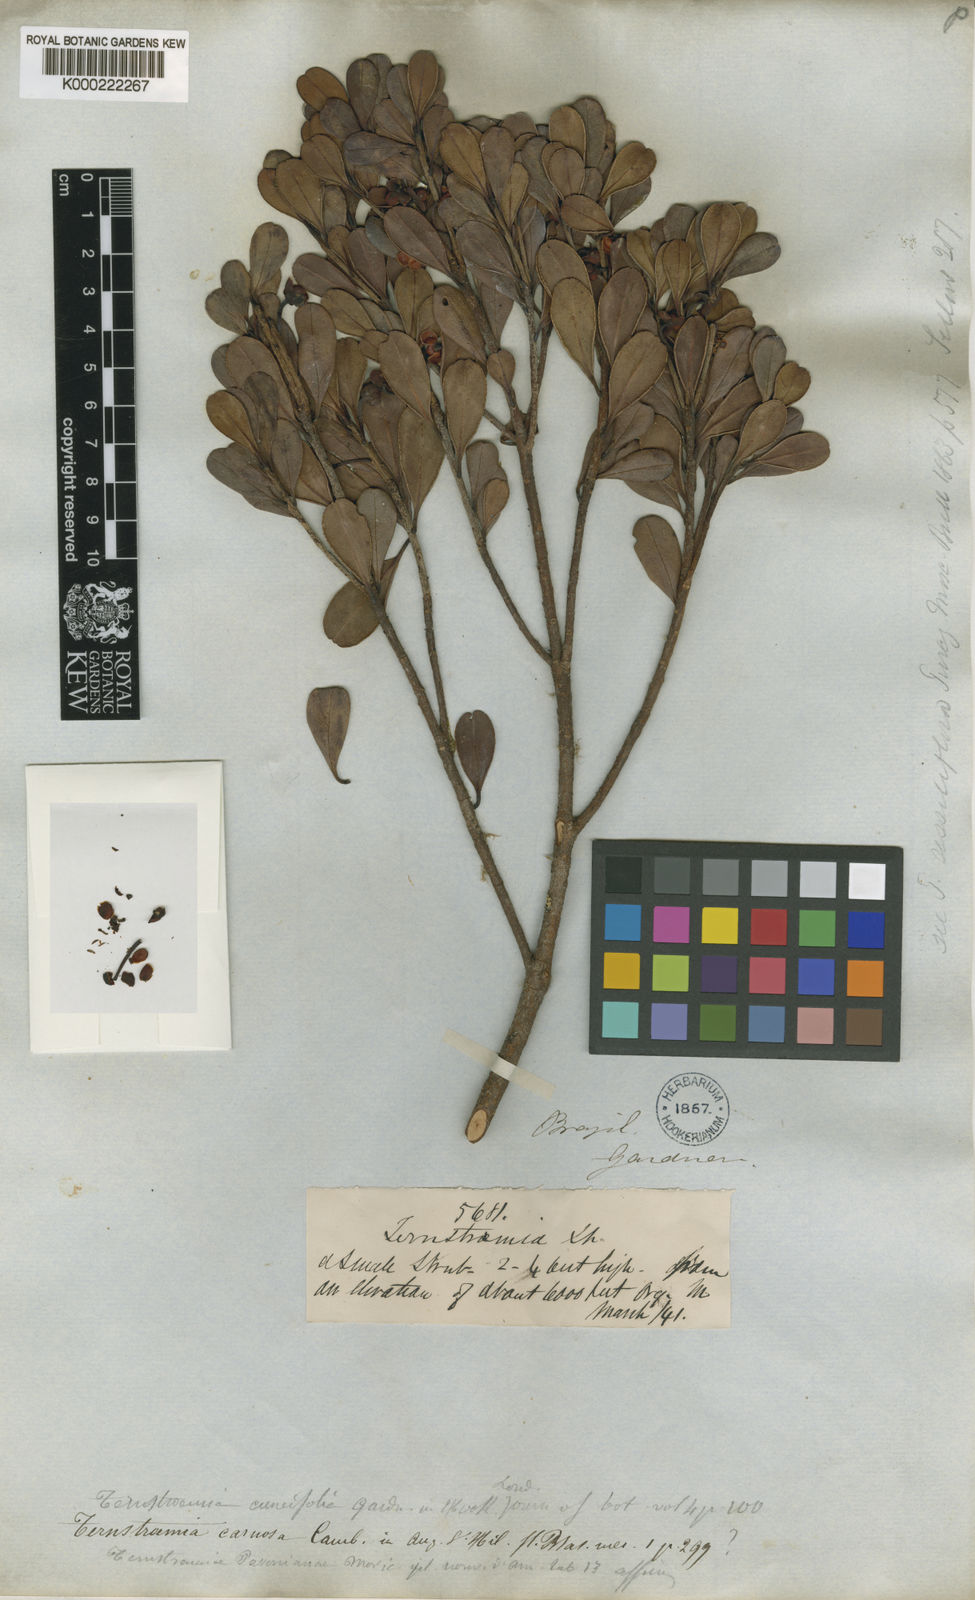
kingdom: Plantae
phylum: Tracheophyta
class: Magnoliopsida
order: Ericales
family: Pentaphylacaceae
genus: Ternstroemia
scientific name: Ternstroemia cuneifolia
